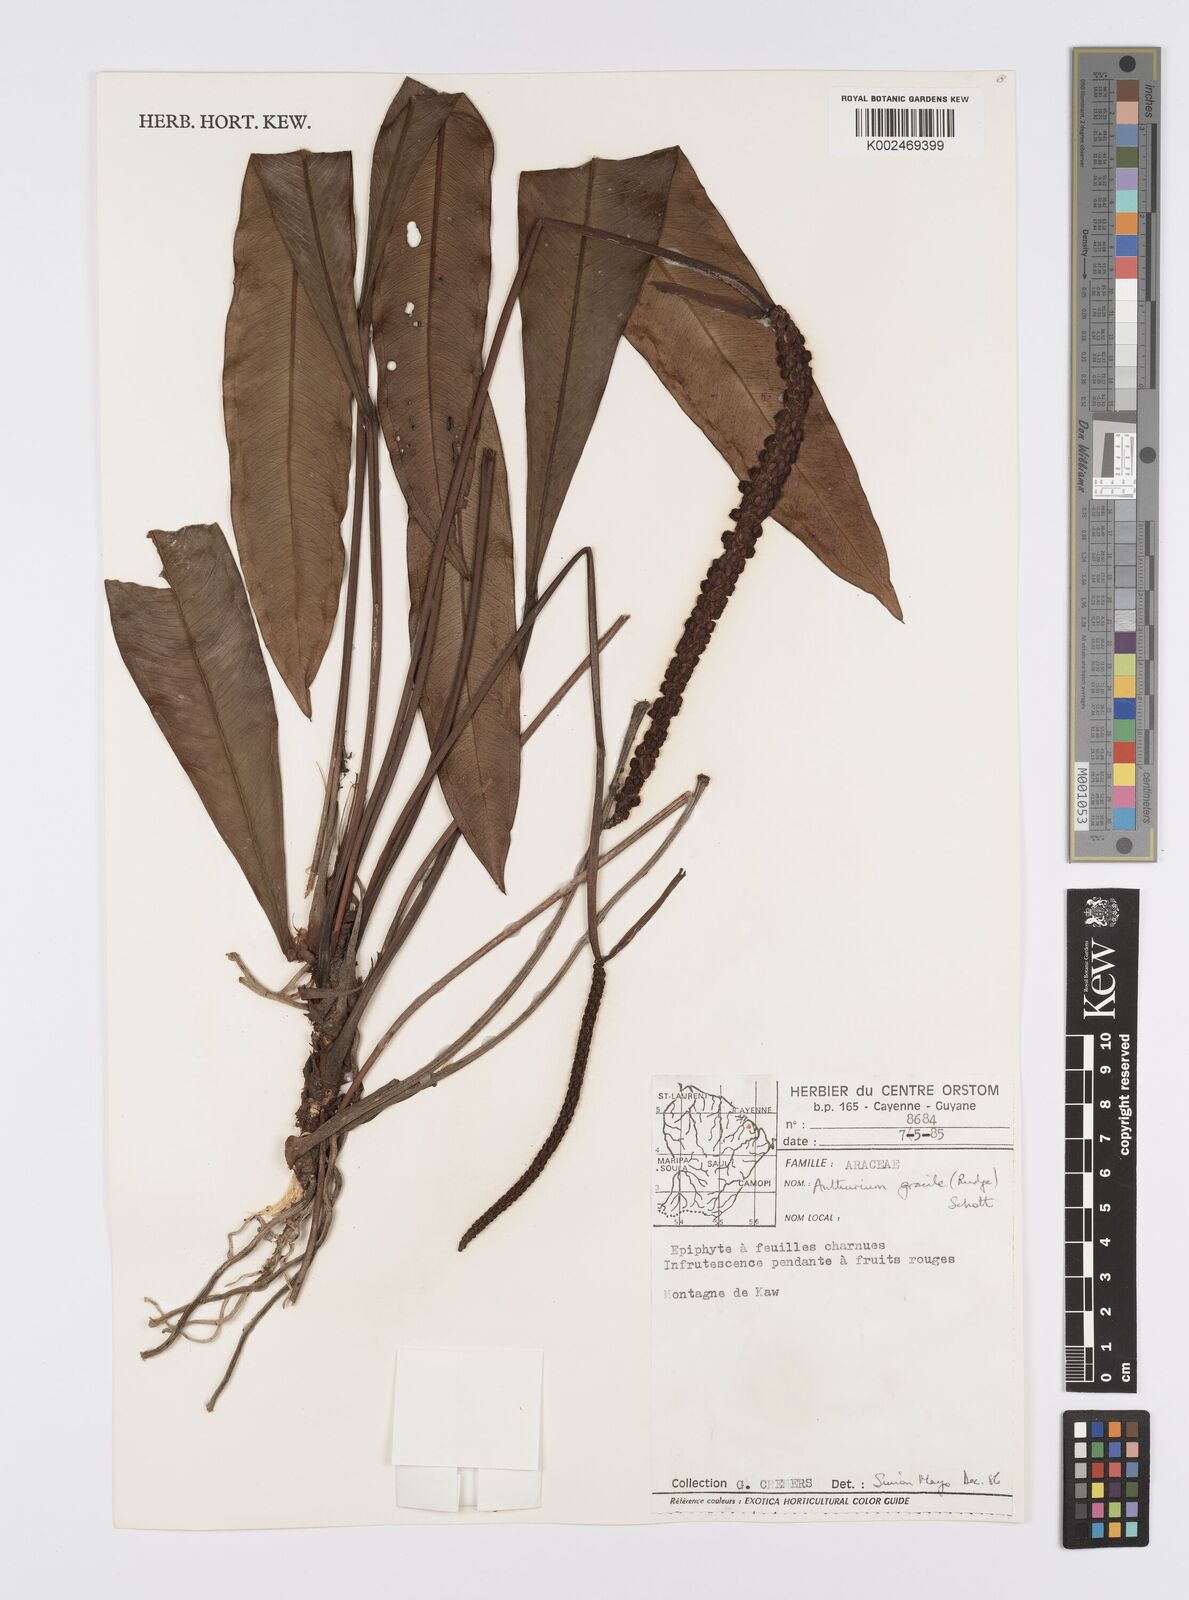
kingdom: Plantae
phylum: Tracheophyta
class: Liliopsida
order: Alismatales
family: Araceae
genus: Anthurium
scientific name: Anthurium gracile
